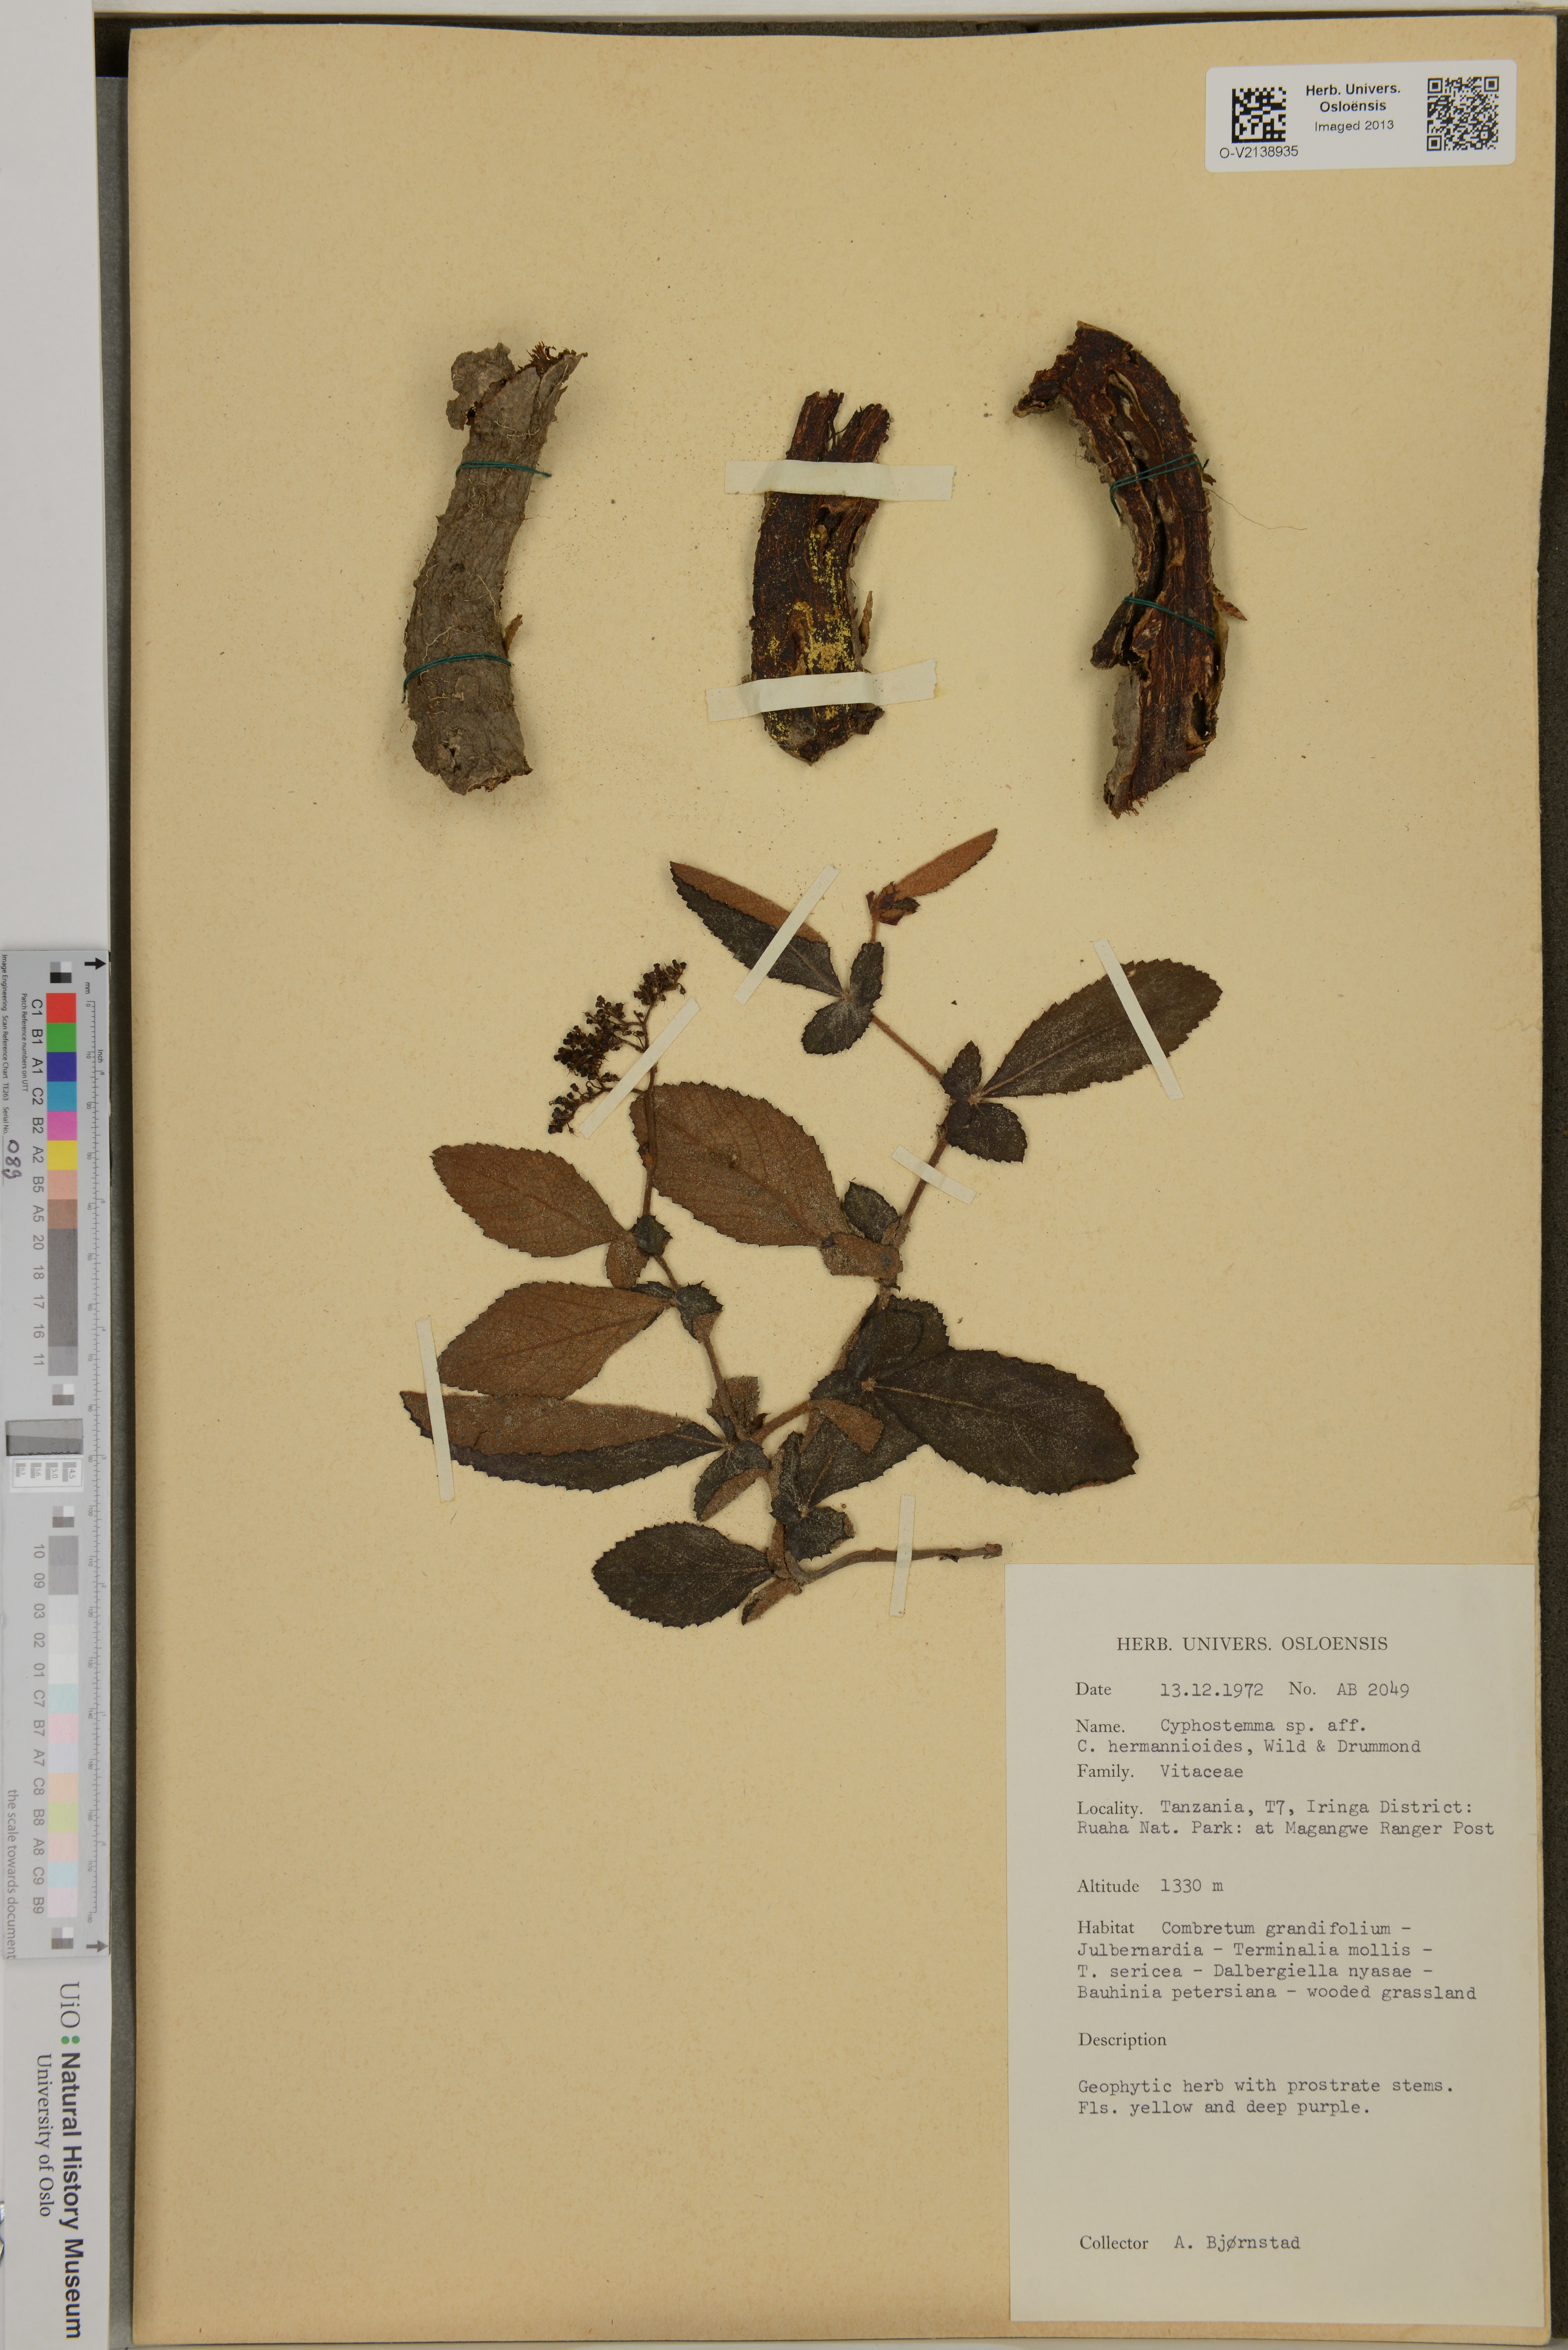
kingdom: Plantae
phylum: Tracheophyta
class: Magnoliopsida
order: Vitales
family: Vitaceae
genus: Cissus
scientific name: Cissus
